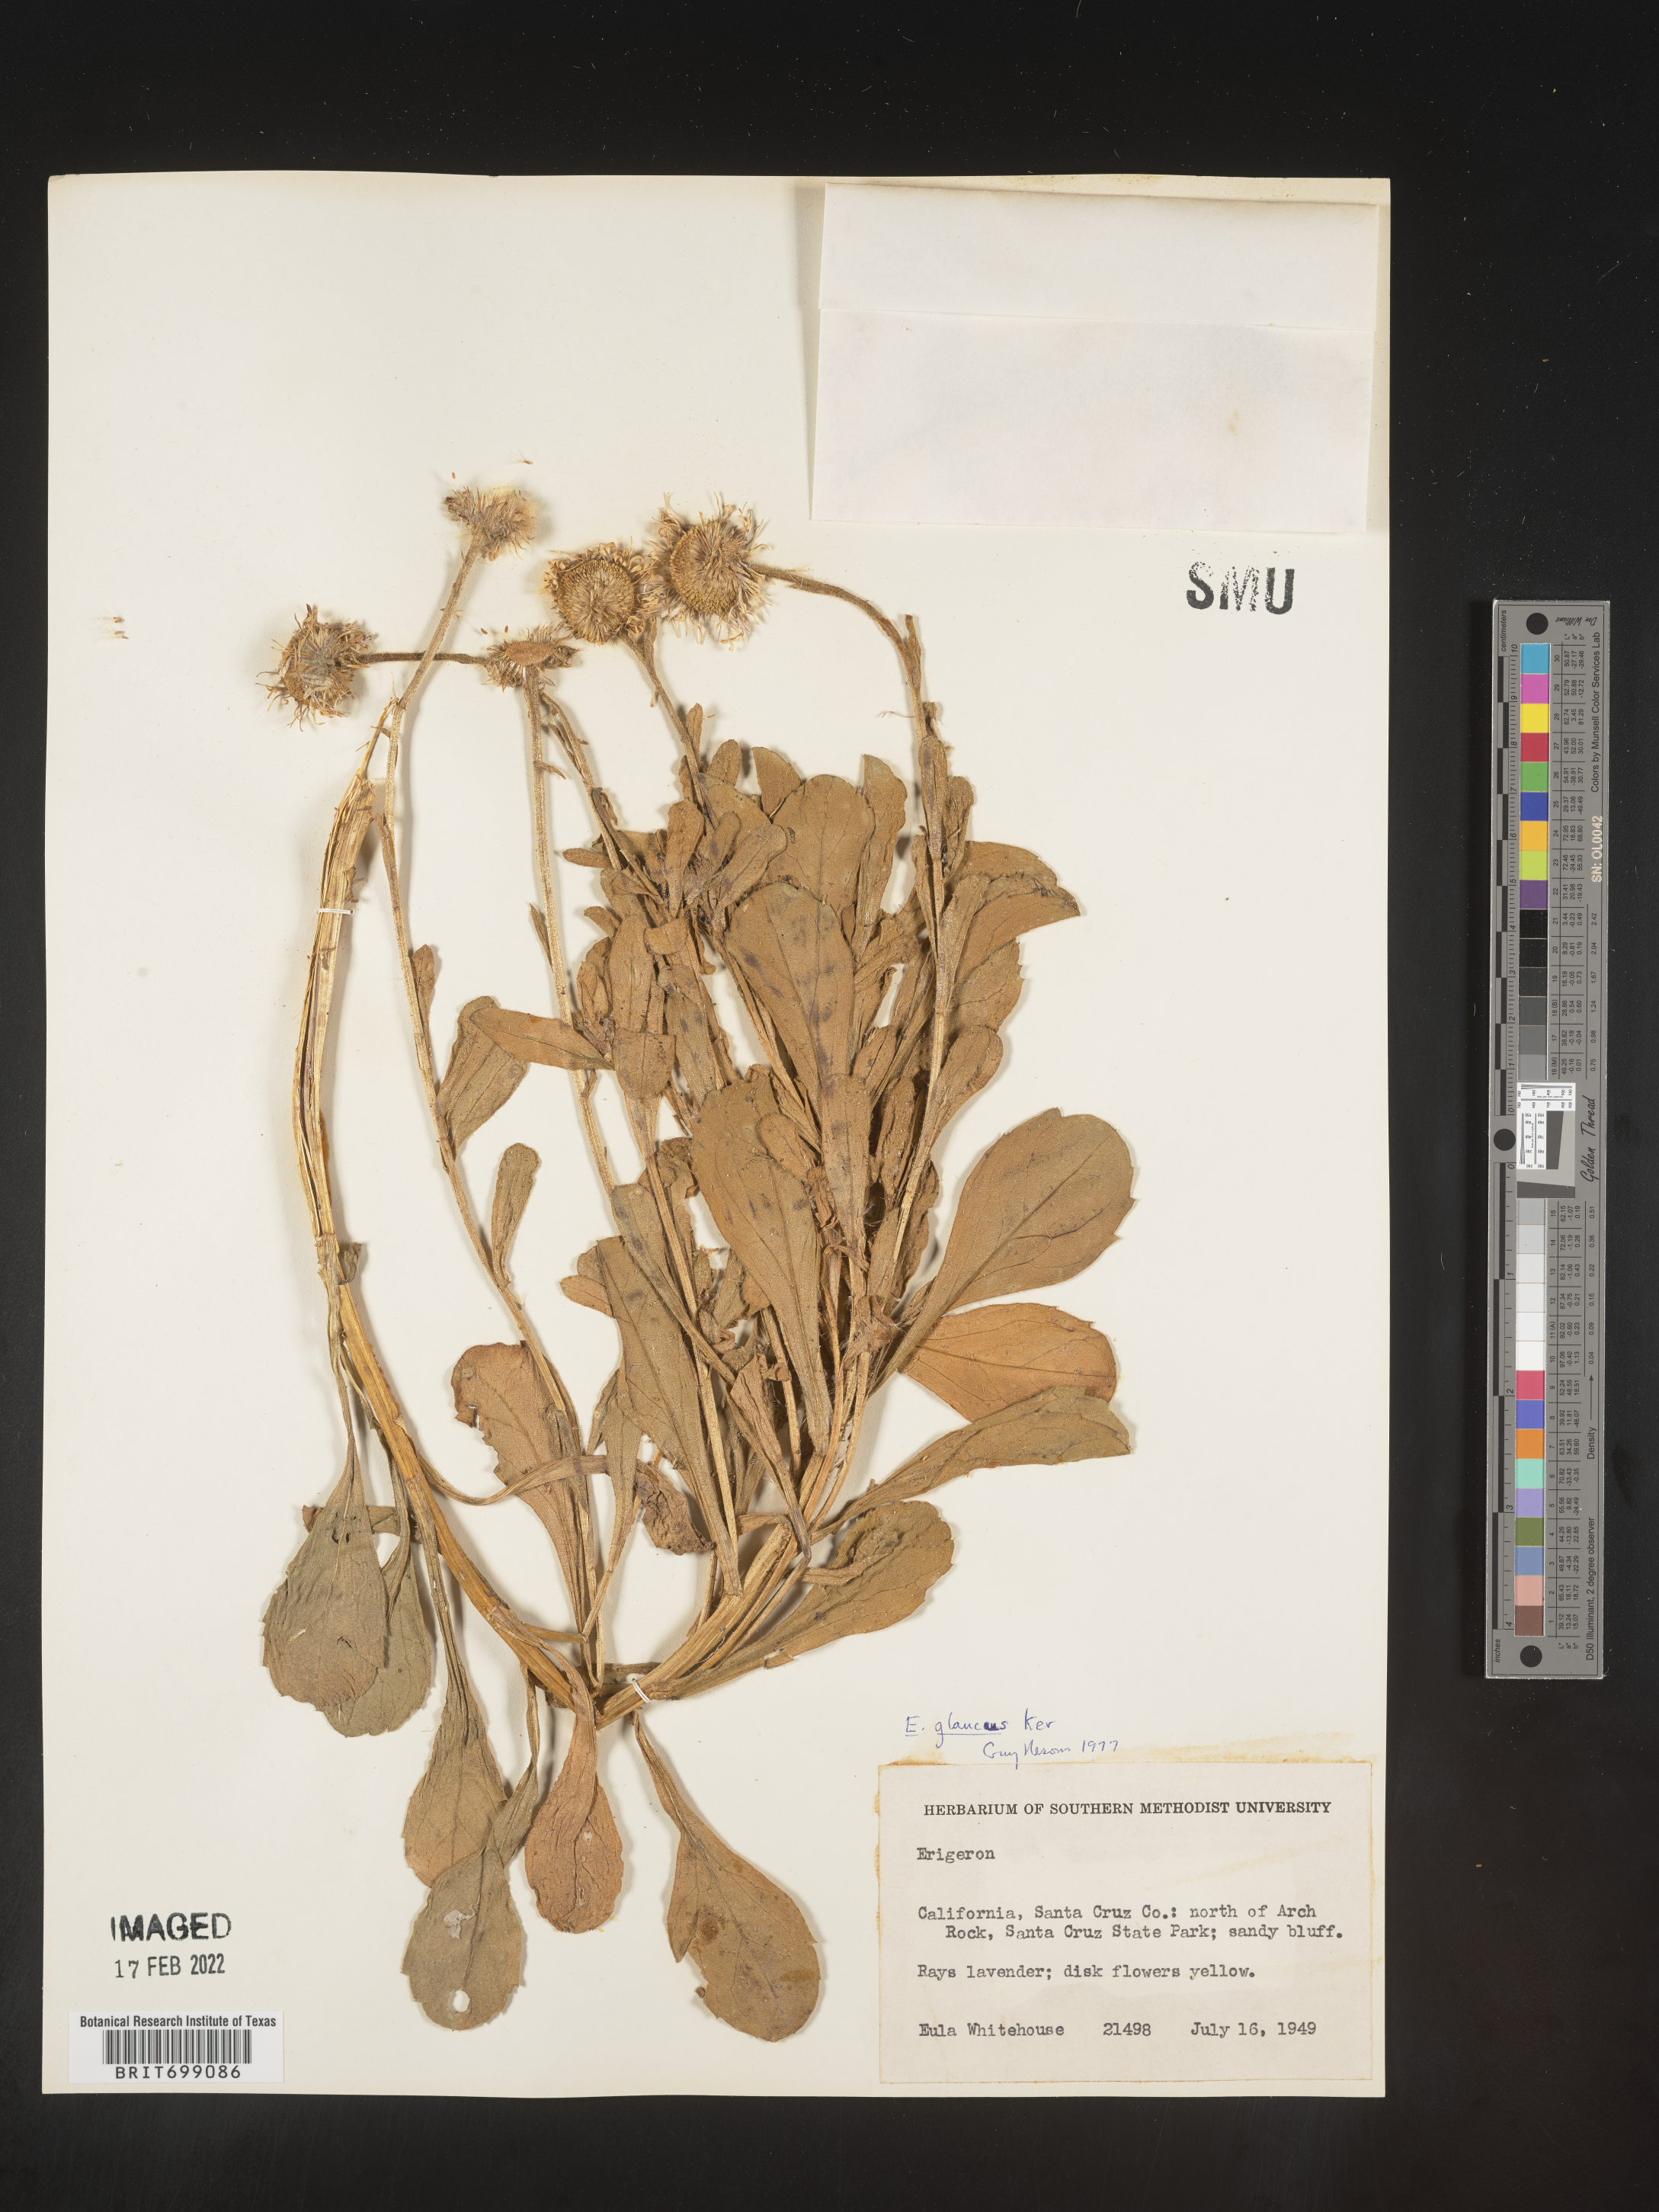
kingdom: Plantae
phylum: Tracheophyta
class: Magnoliopsida
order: Asterales
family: Asteraceae
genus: Erigeron
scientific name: Erigeron glaucus
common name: Seaside daisy
